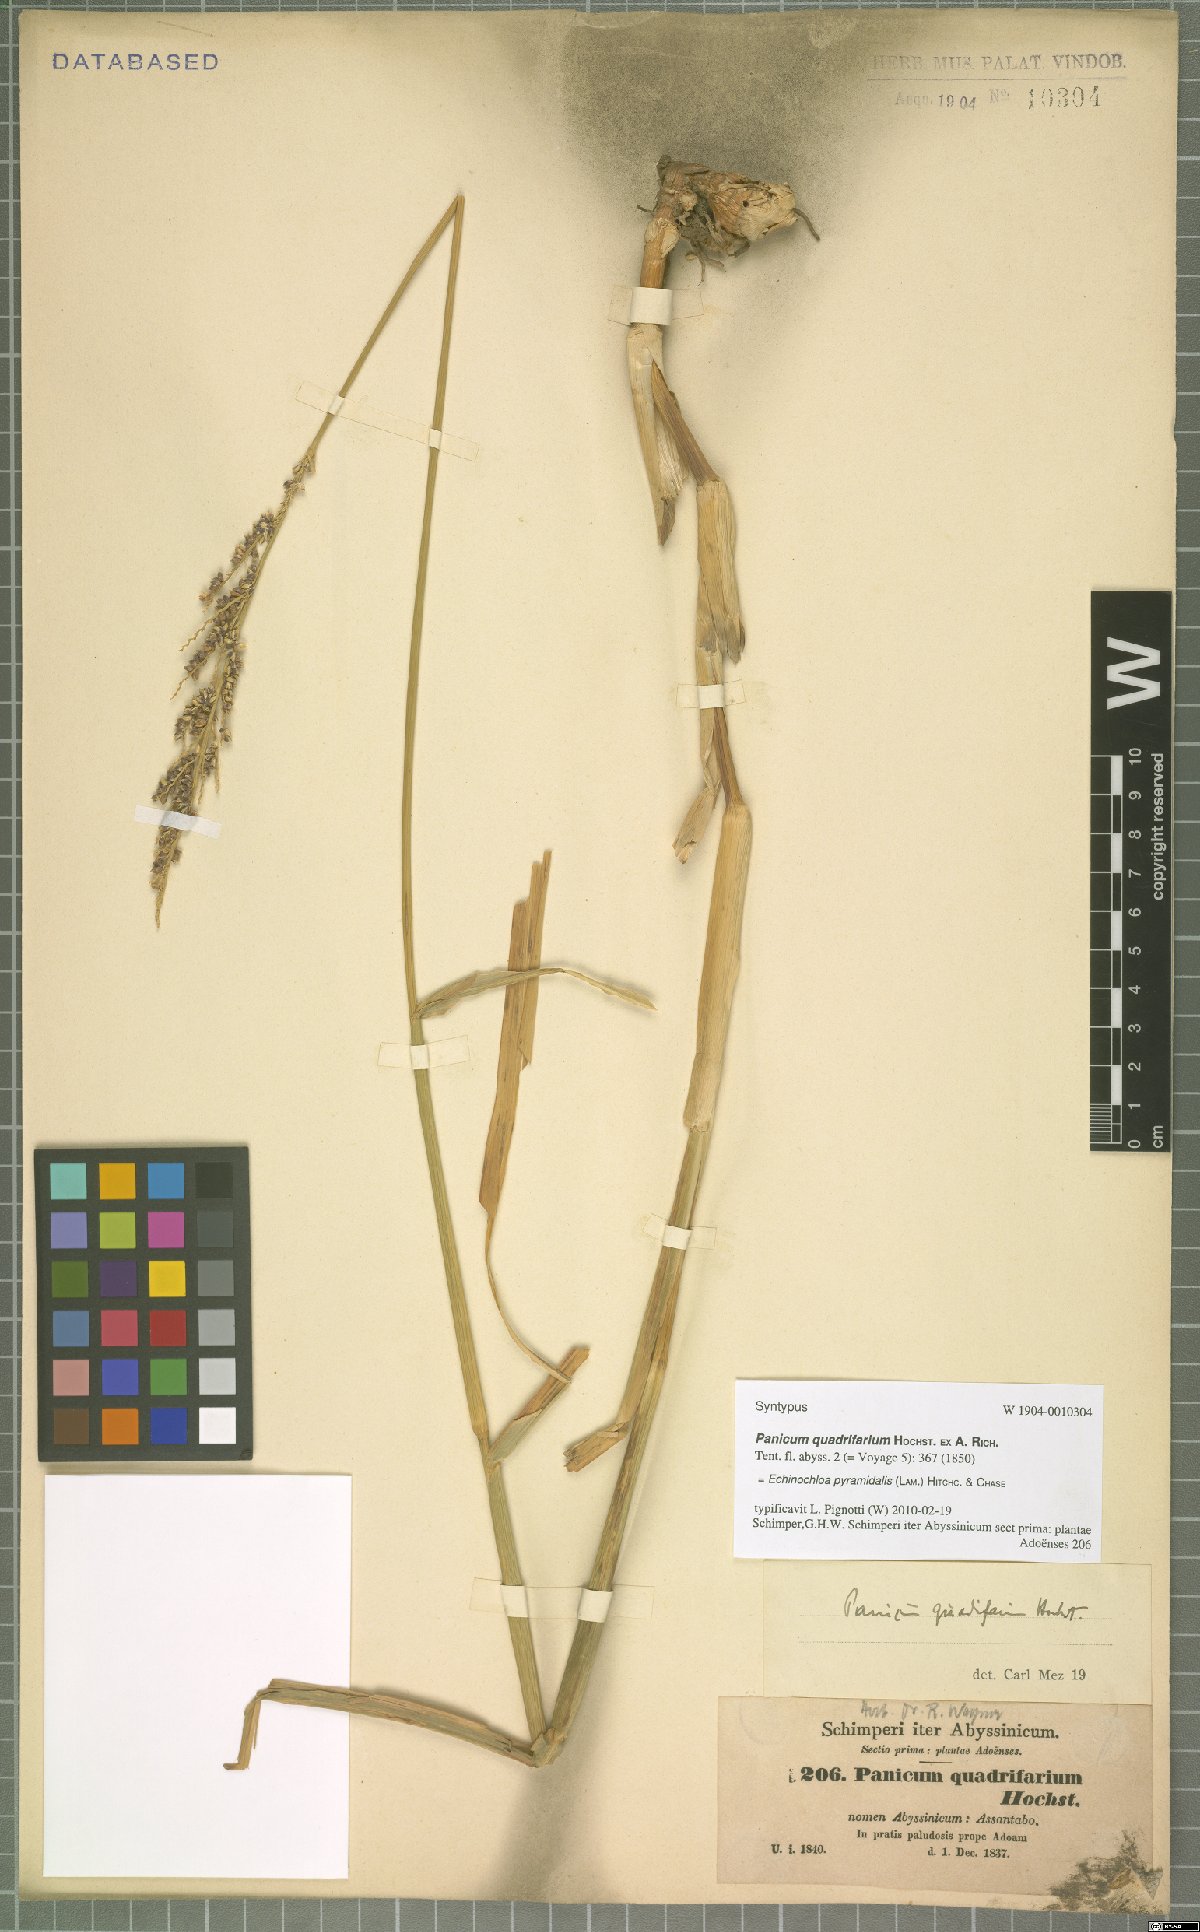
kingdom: Plantae
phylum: Tracheophyta
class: Liliopsida
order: Poales
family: Poaceae
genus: Echinochloa
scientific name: Echinochloa pyramidalis
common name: Antelope grass
